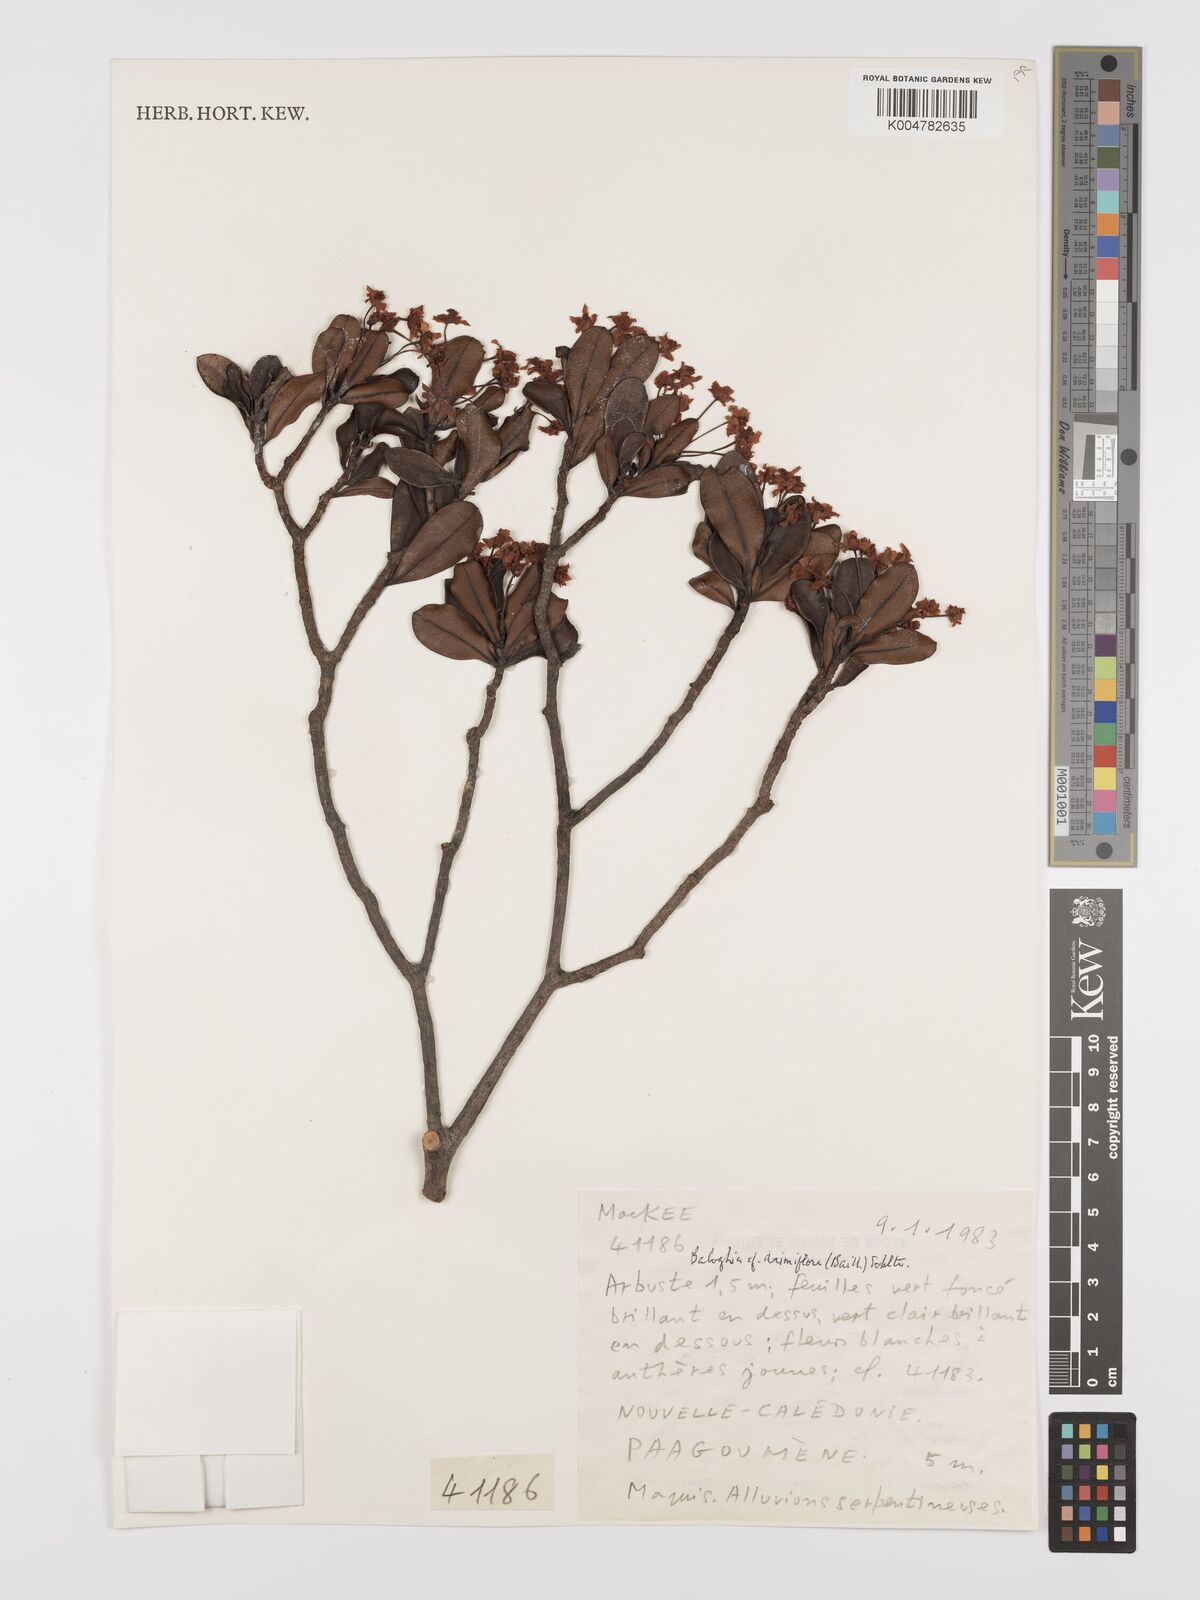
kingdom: Plantae
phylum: Tracheophyta
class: Magnoliopsida
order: Malpighiales
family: Euphorbiaceae
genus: Baloghia
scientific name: Baloghia drimiflora
